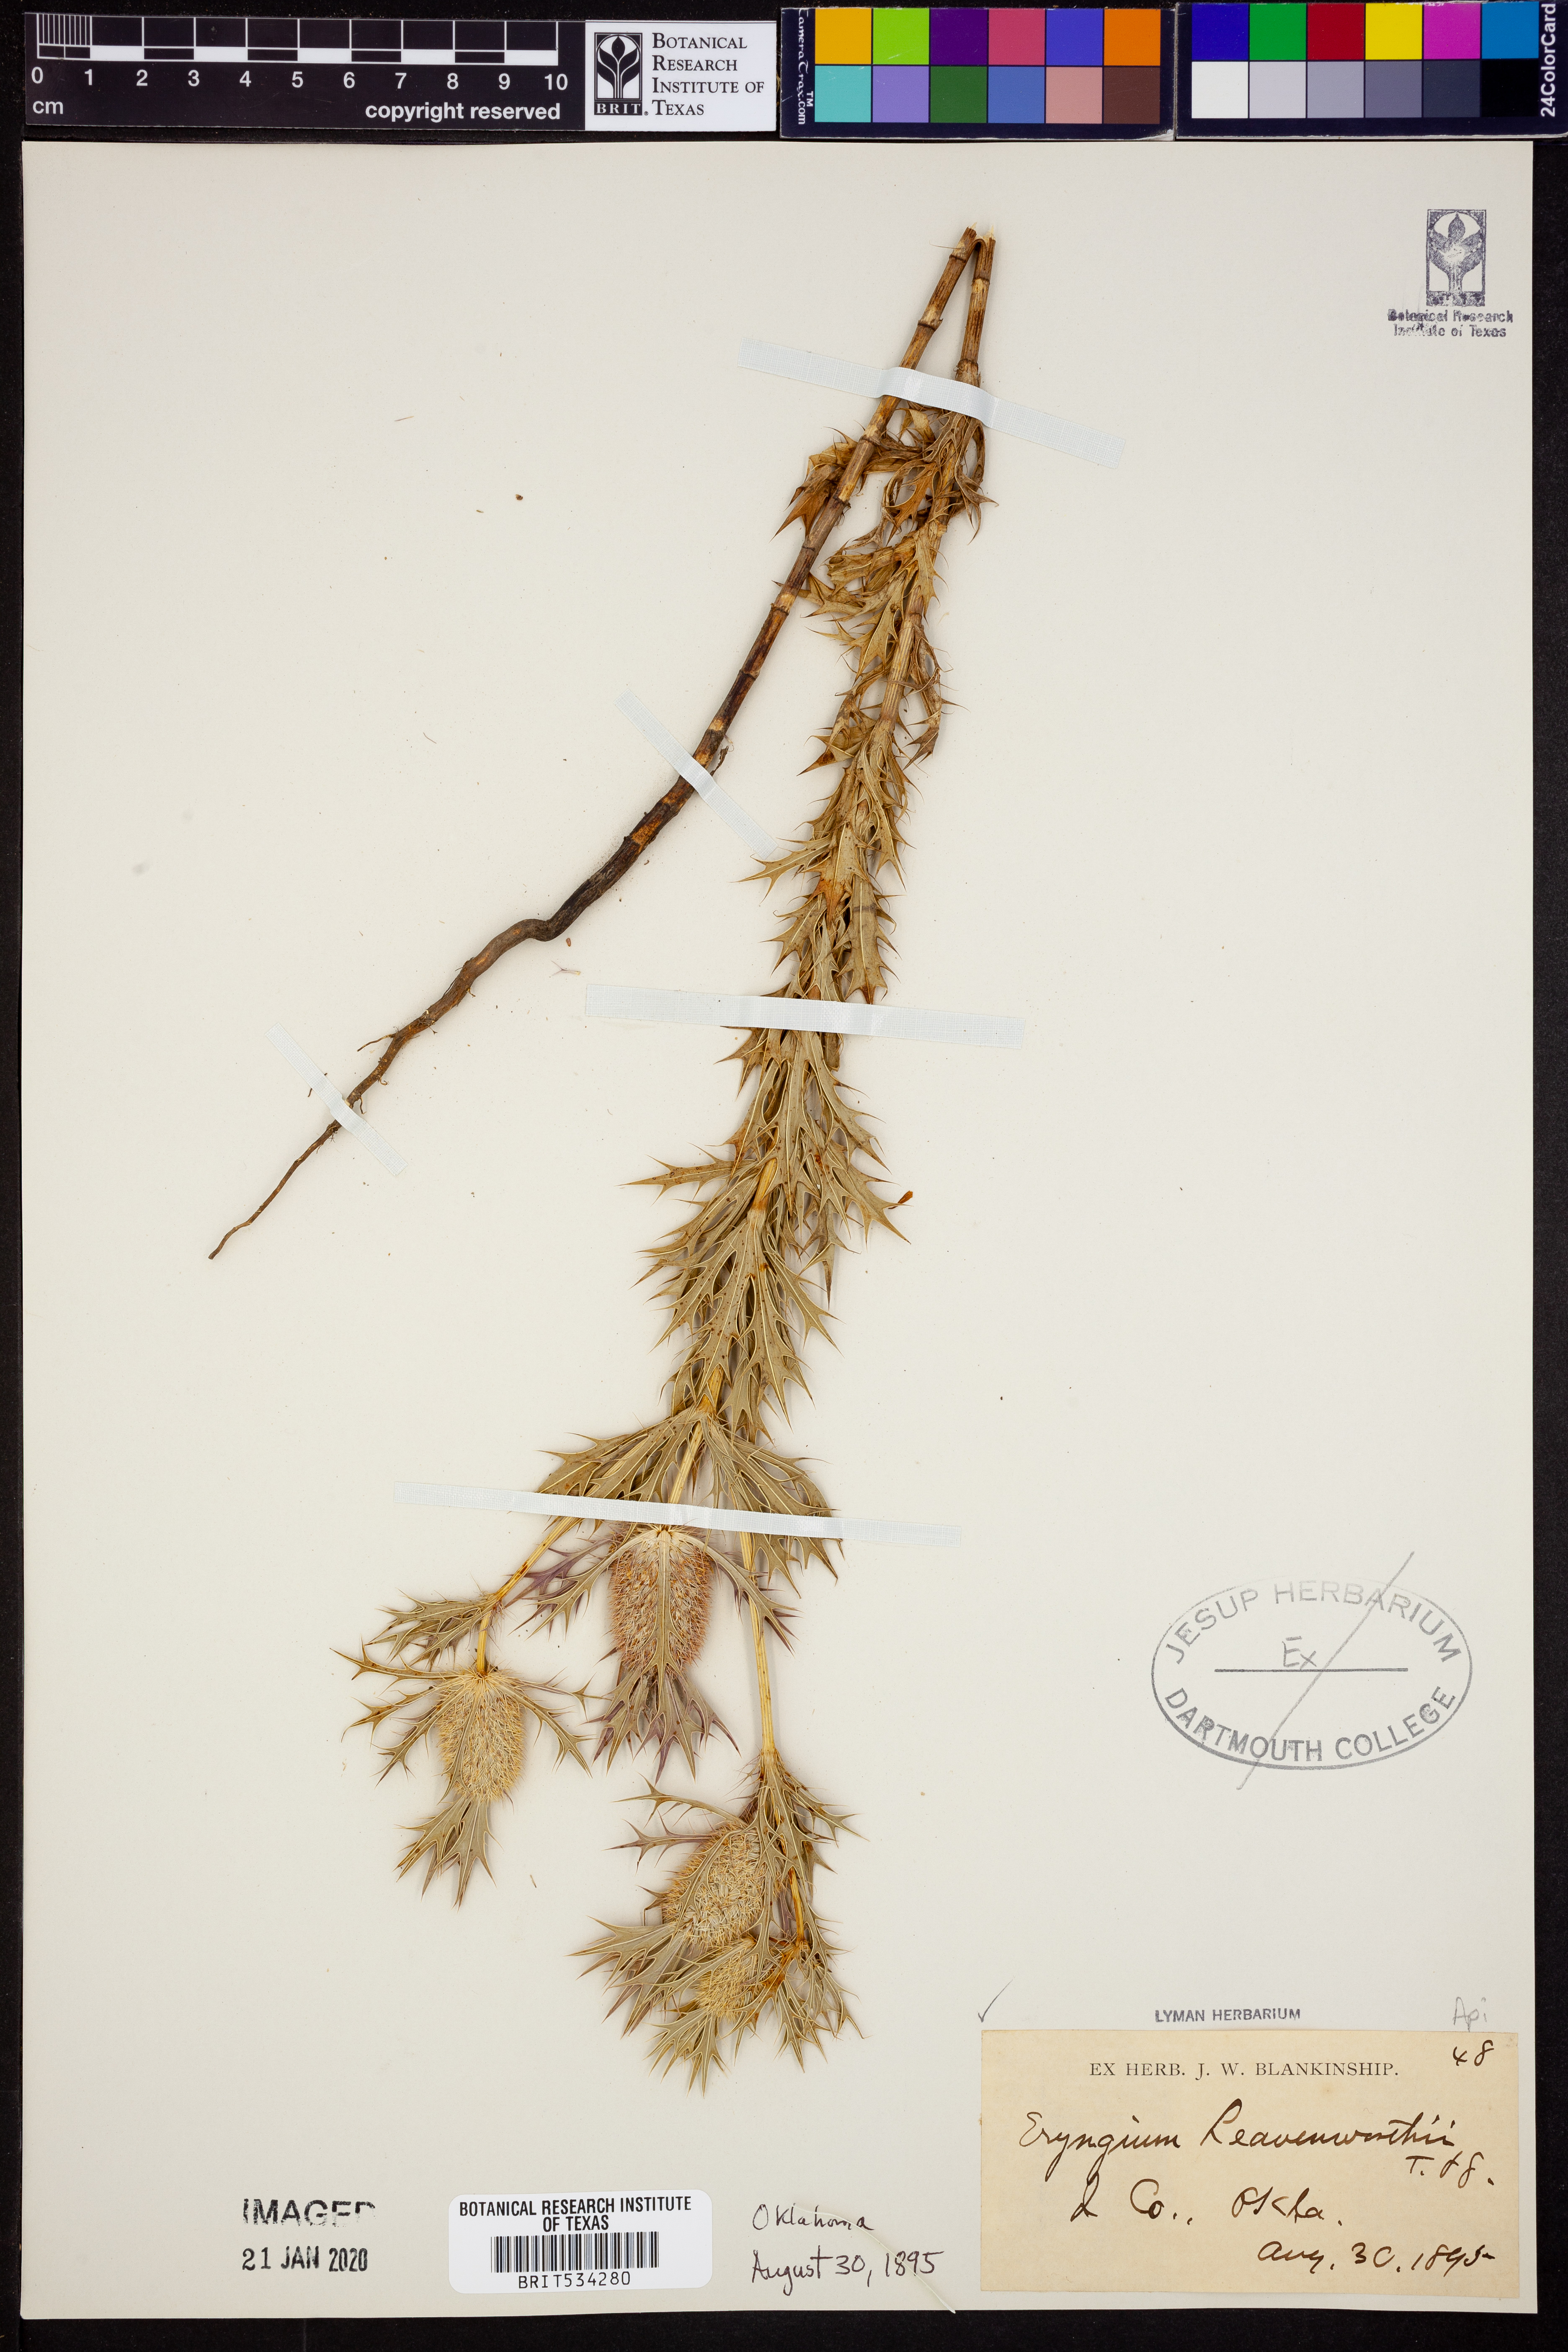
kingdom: Plantae
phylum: Tracheophyta
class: Magnoliopsida
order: Apiales
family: Apiaceae
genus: Eryngium
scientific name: Eryngium leavenworthii
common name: Leavenworth's eryngo
